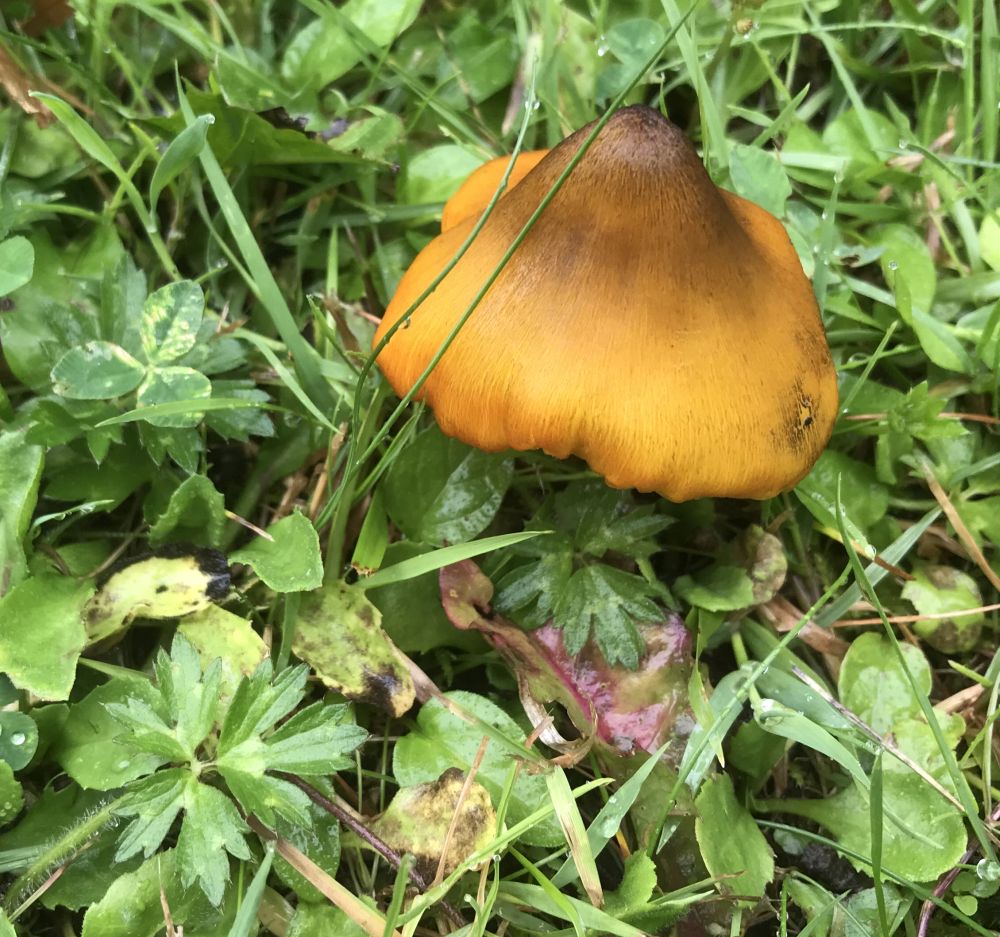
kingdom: Fungi
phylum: Basidiomycota
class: Agaricomycetes
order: Agaricales
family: Hygrophoraceae
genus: Hygrocybe
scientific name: Hygrocybe conica
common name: kegle-vokshat
